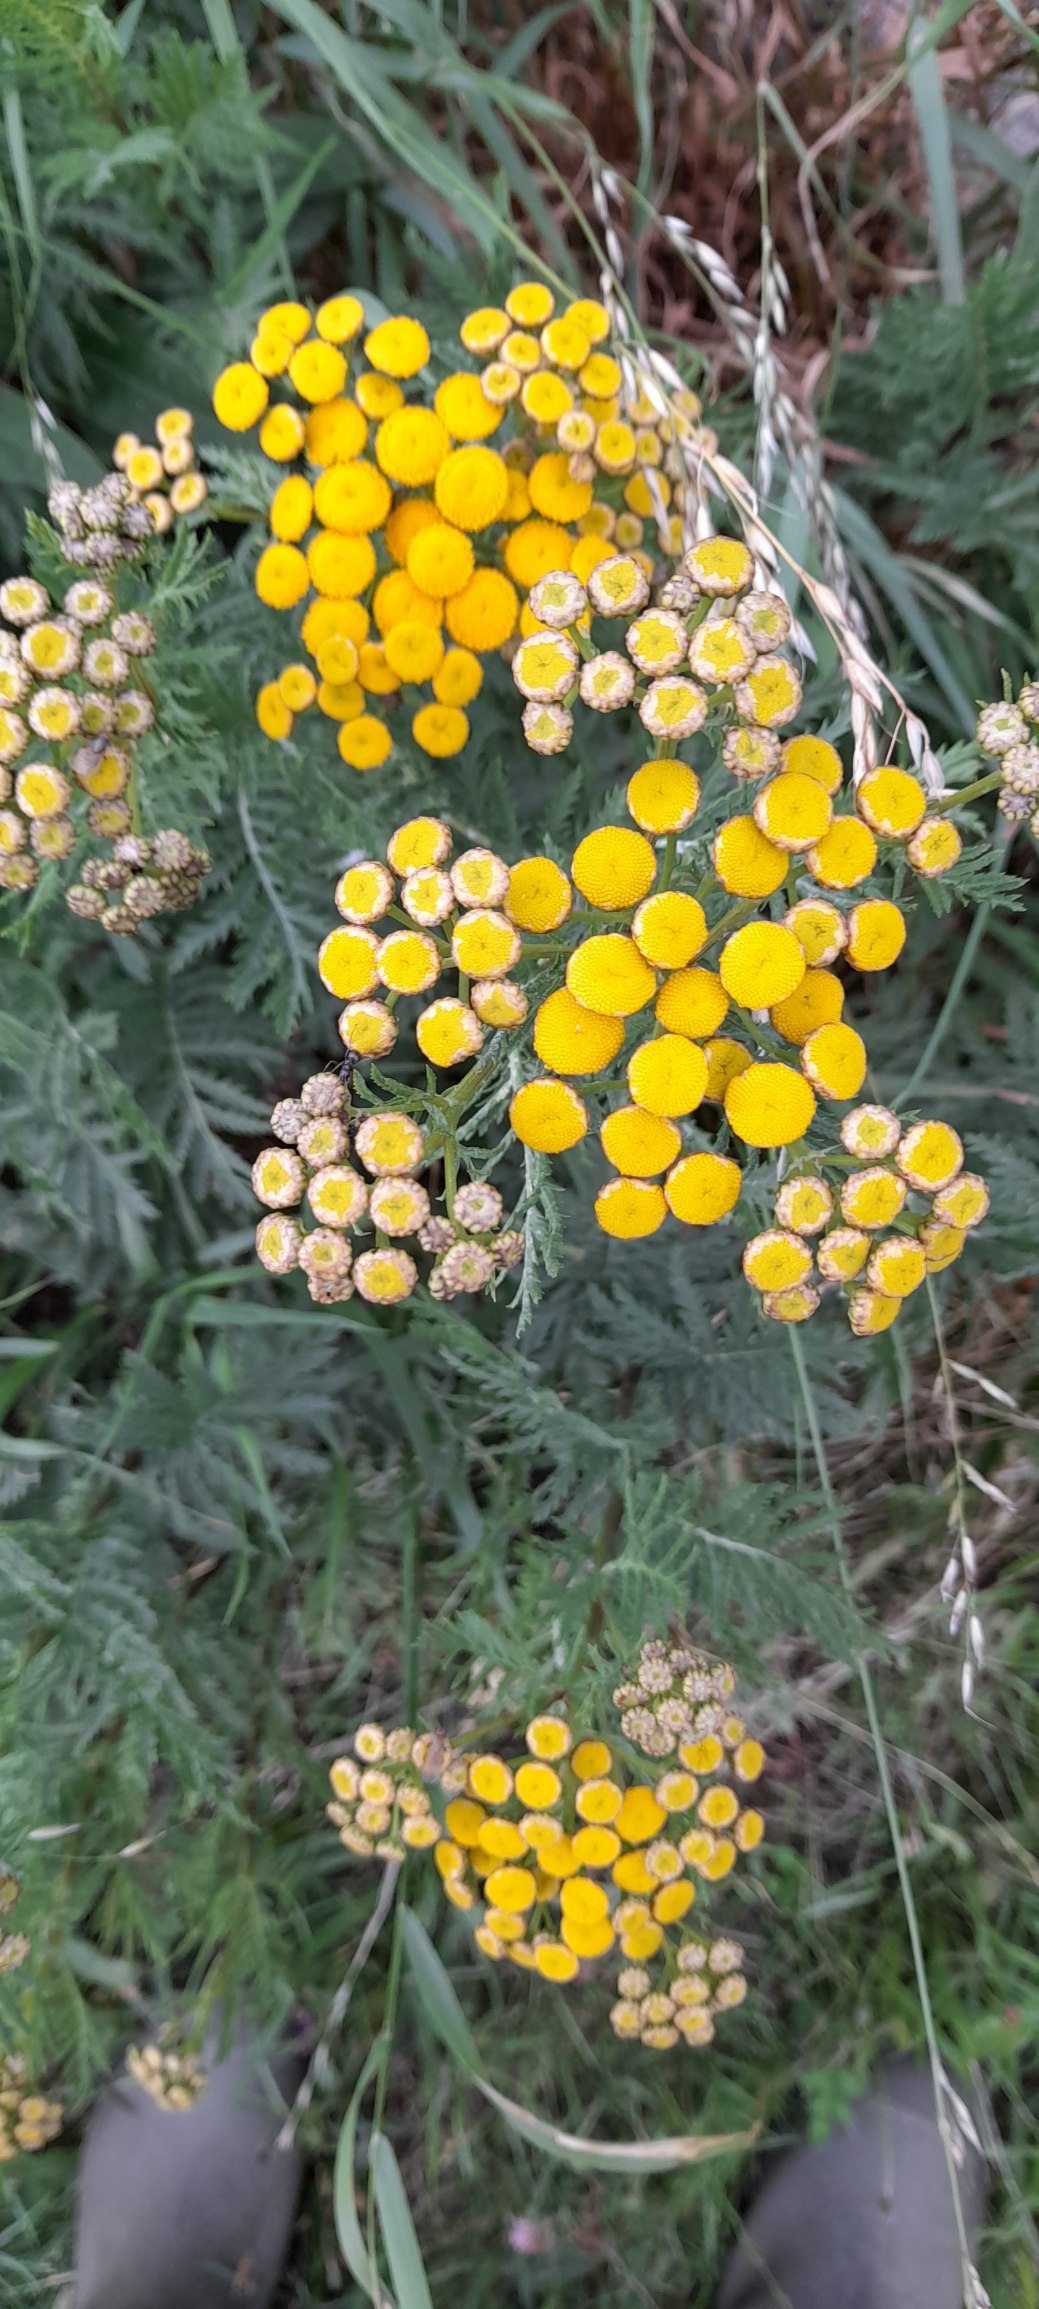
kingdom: Plantae
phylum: Tracheophyta
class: Magnoliopsida
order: Asterales
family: Asteraceae
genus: Tanacetum
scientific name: Tanacetum vulgare
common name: Rejnfan
